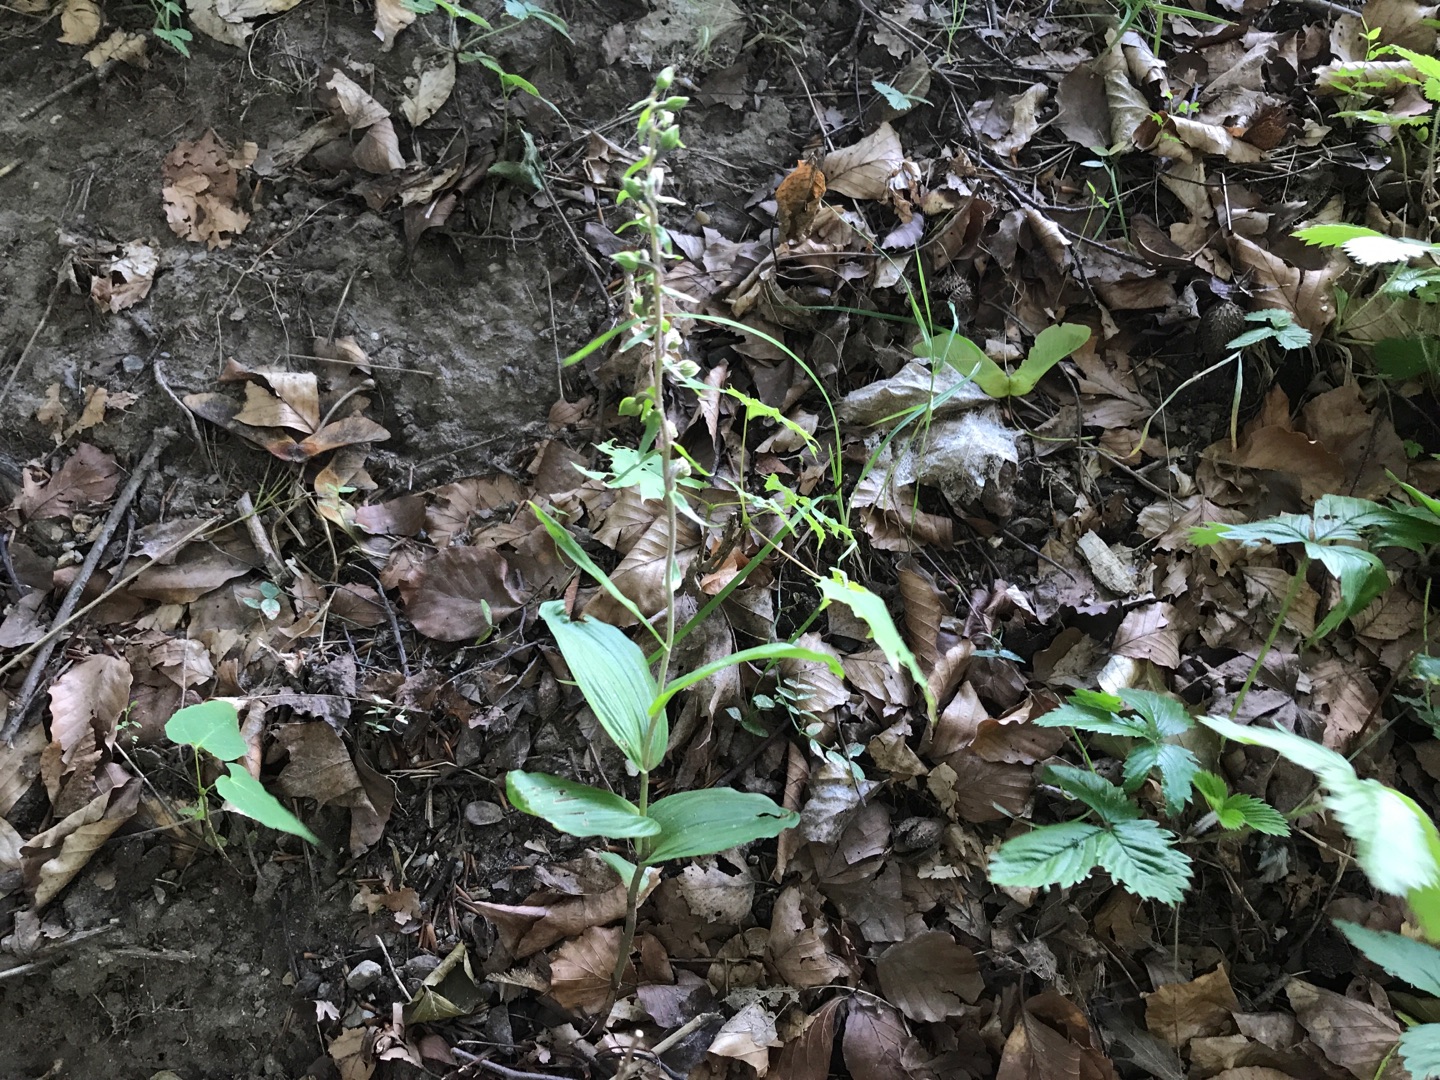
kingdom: Plantae
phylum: Tracheophyta
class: Liliopsida
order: Asparagales
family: Orchidaceae
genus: Epipactis
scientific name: Epipactis helleborine
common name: Skov-hullæbe
